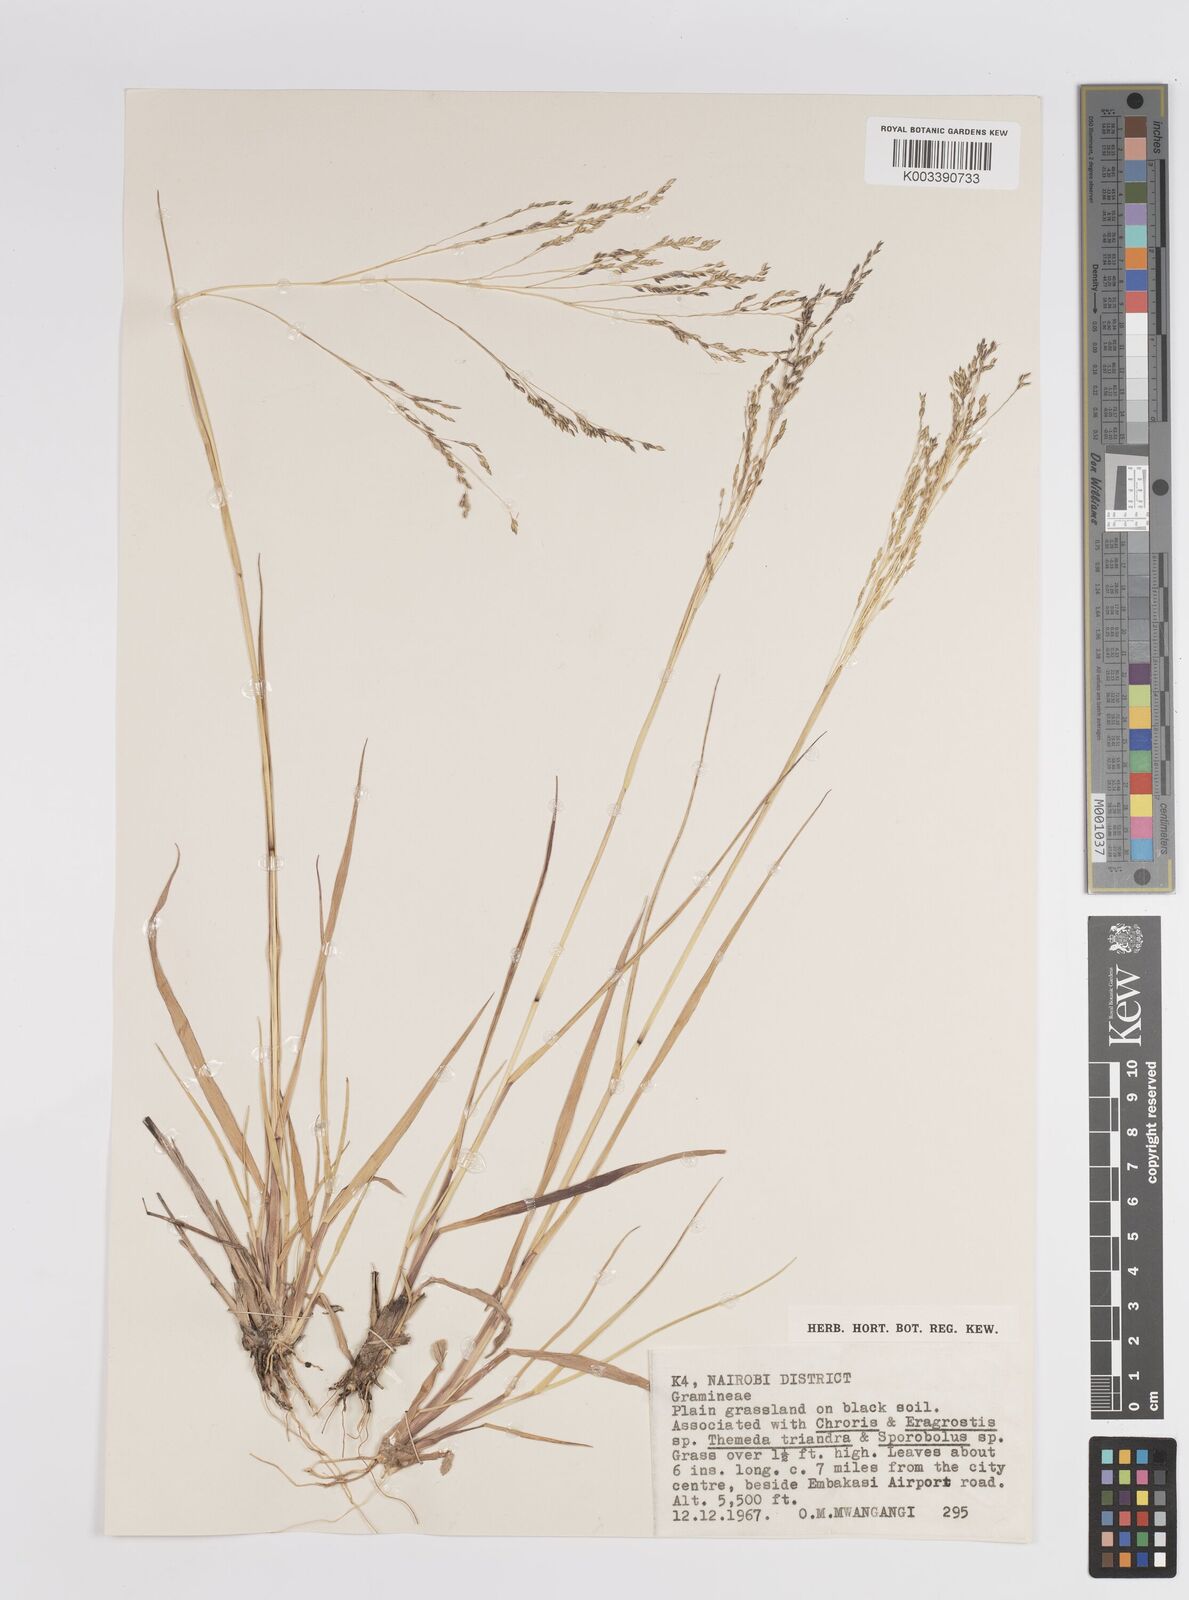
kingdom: Plantae
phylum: Tracheophyta
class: Liliopsida
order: Poales
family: Poaceae
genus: Panicum
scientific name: Panicum porphyrrhizos
